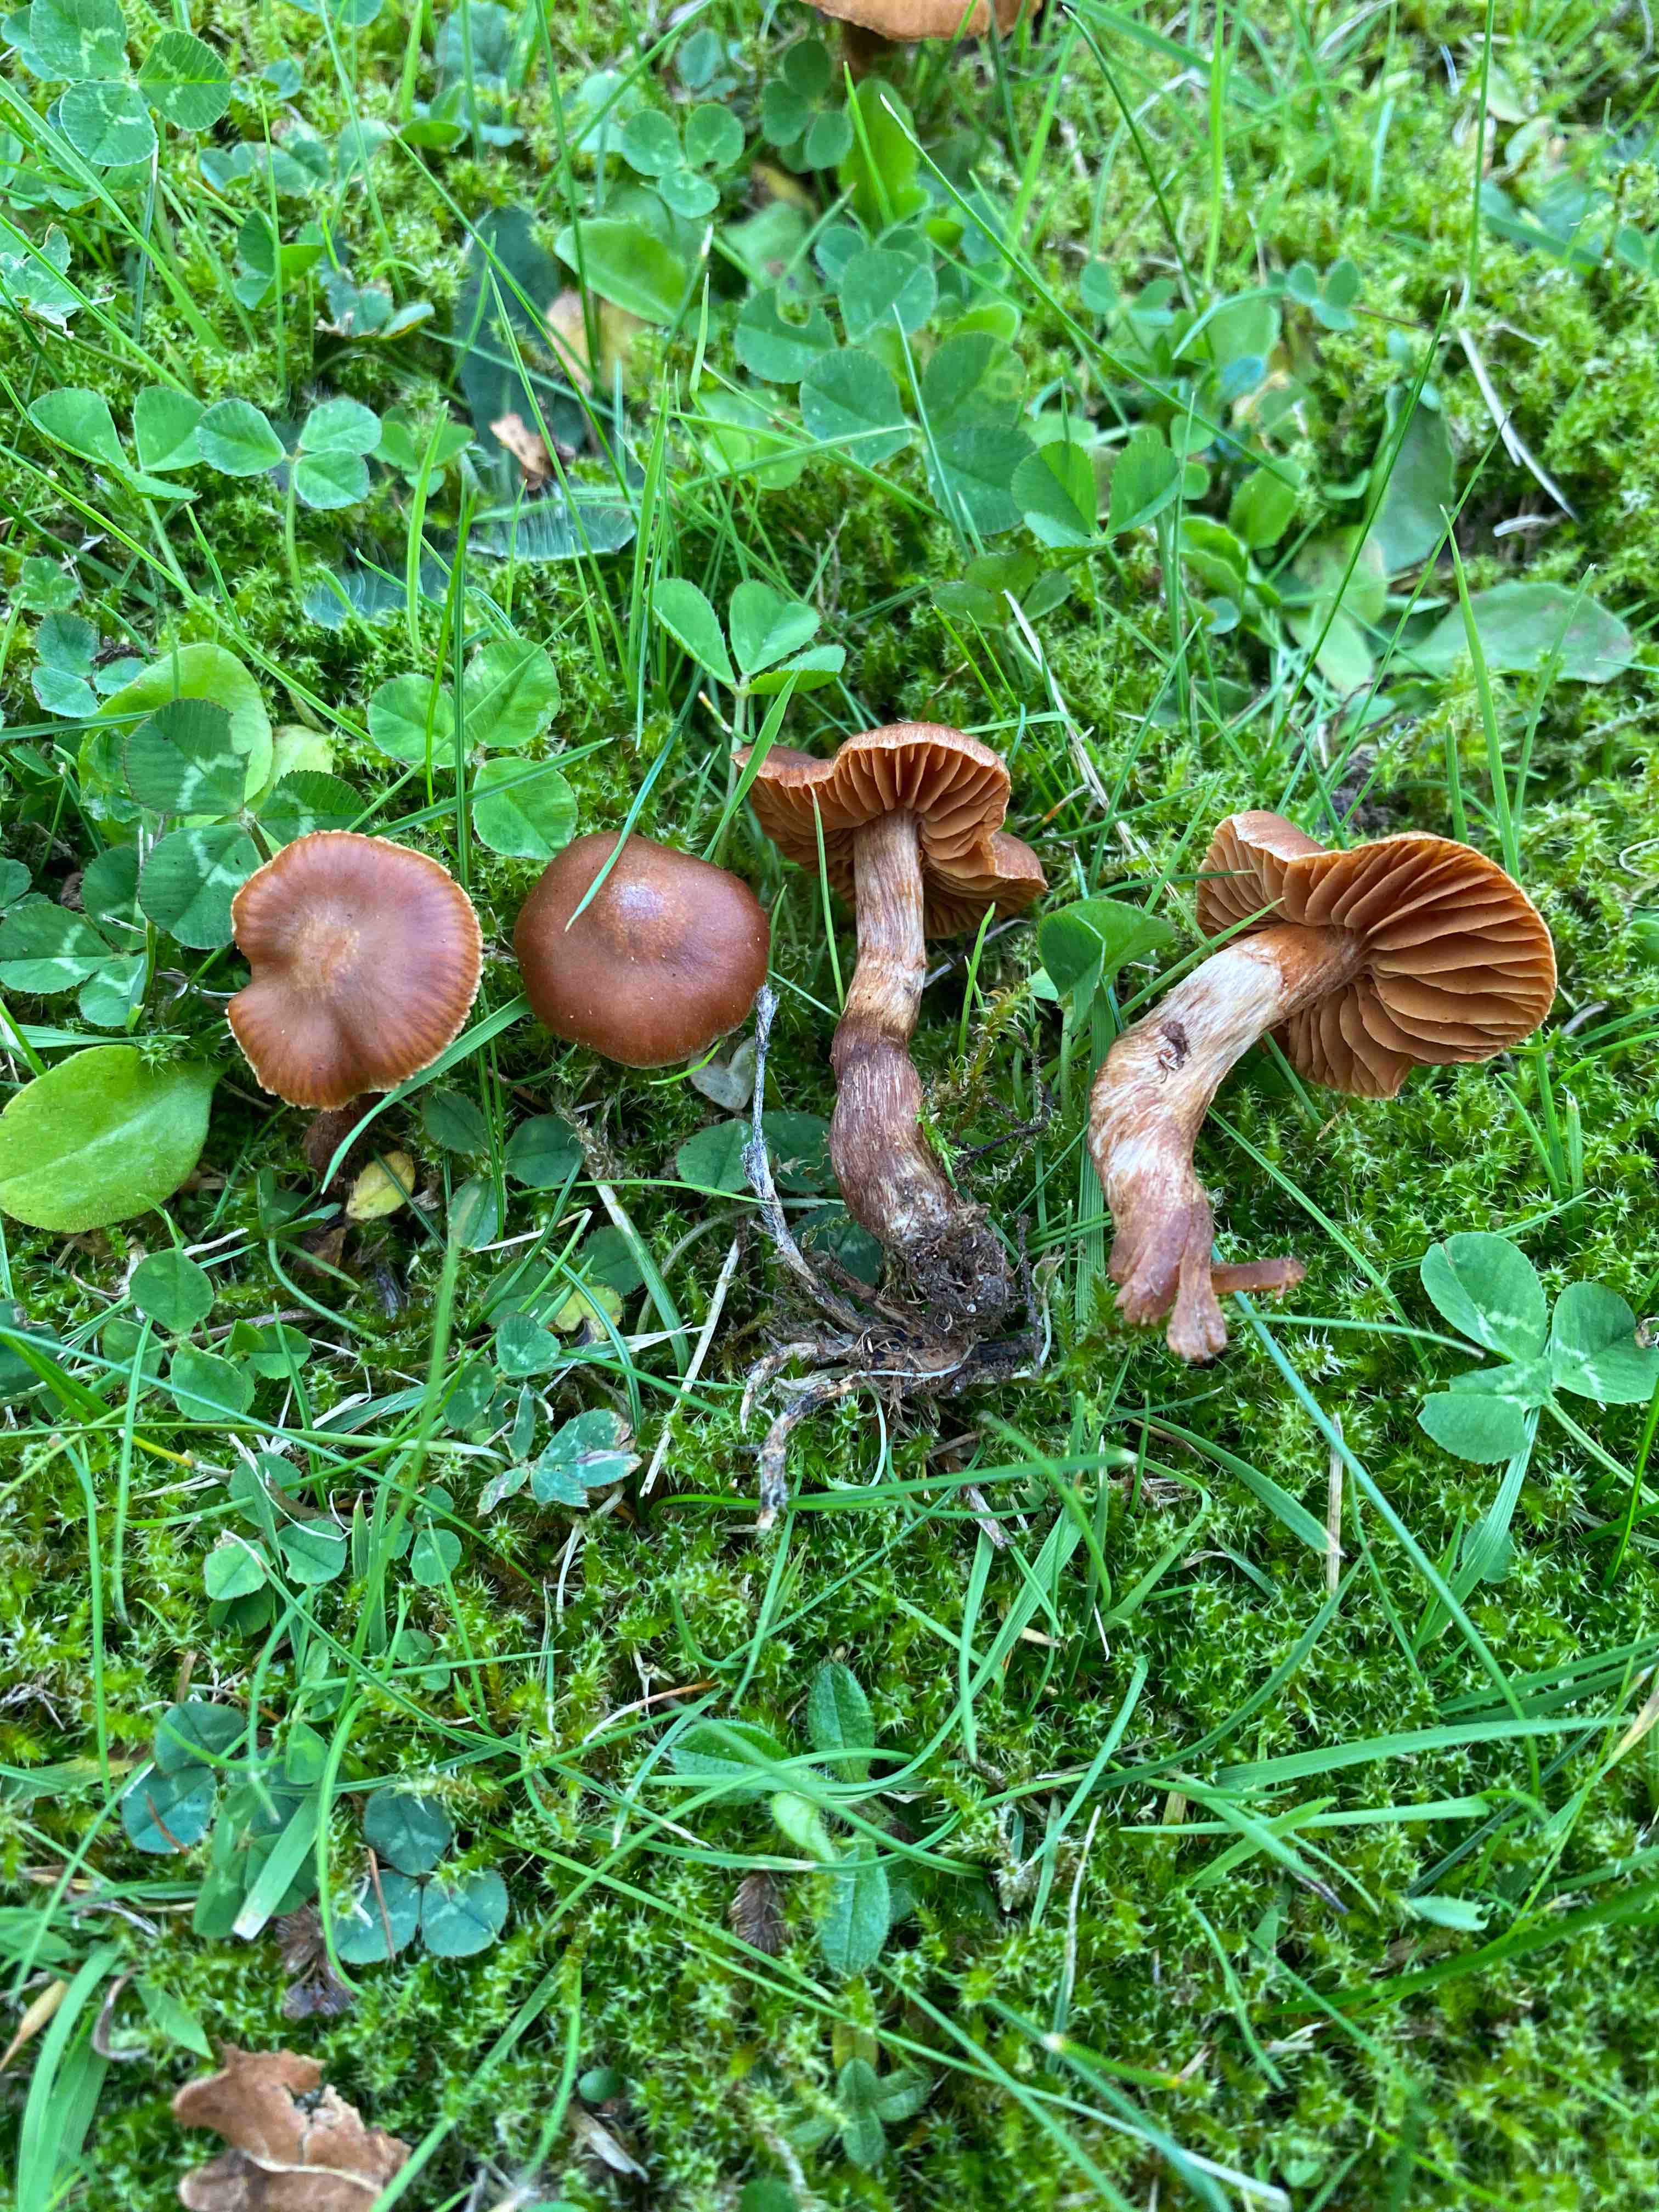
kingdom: Fungi
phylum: Basidiomycota
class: Agaricomycetes
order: Agaricales
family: Cortinariaceae
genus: Cortinarius
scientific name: Cortinarius
